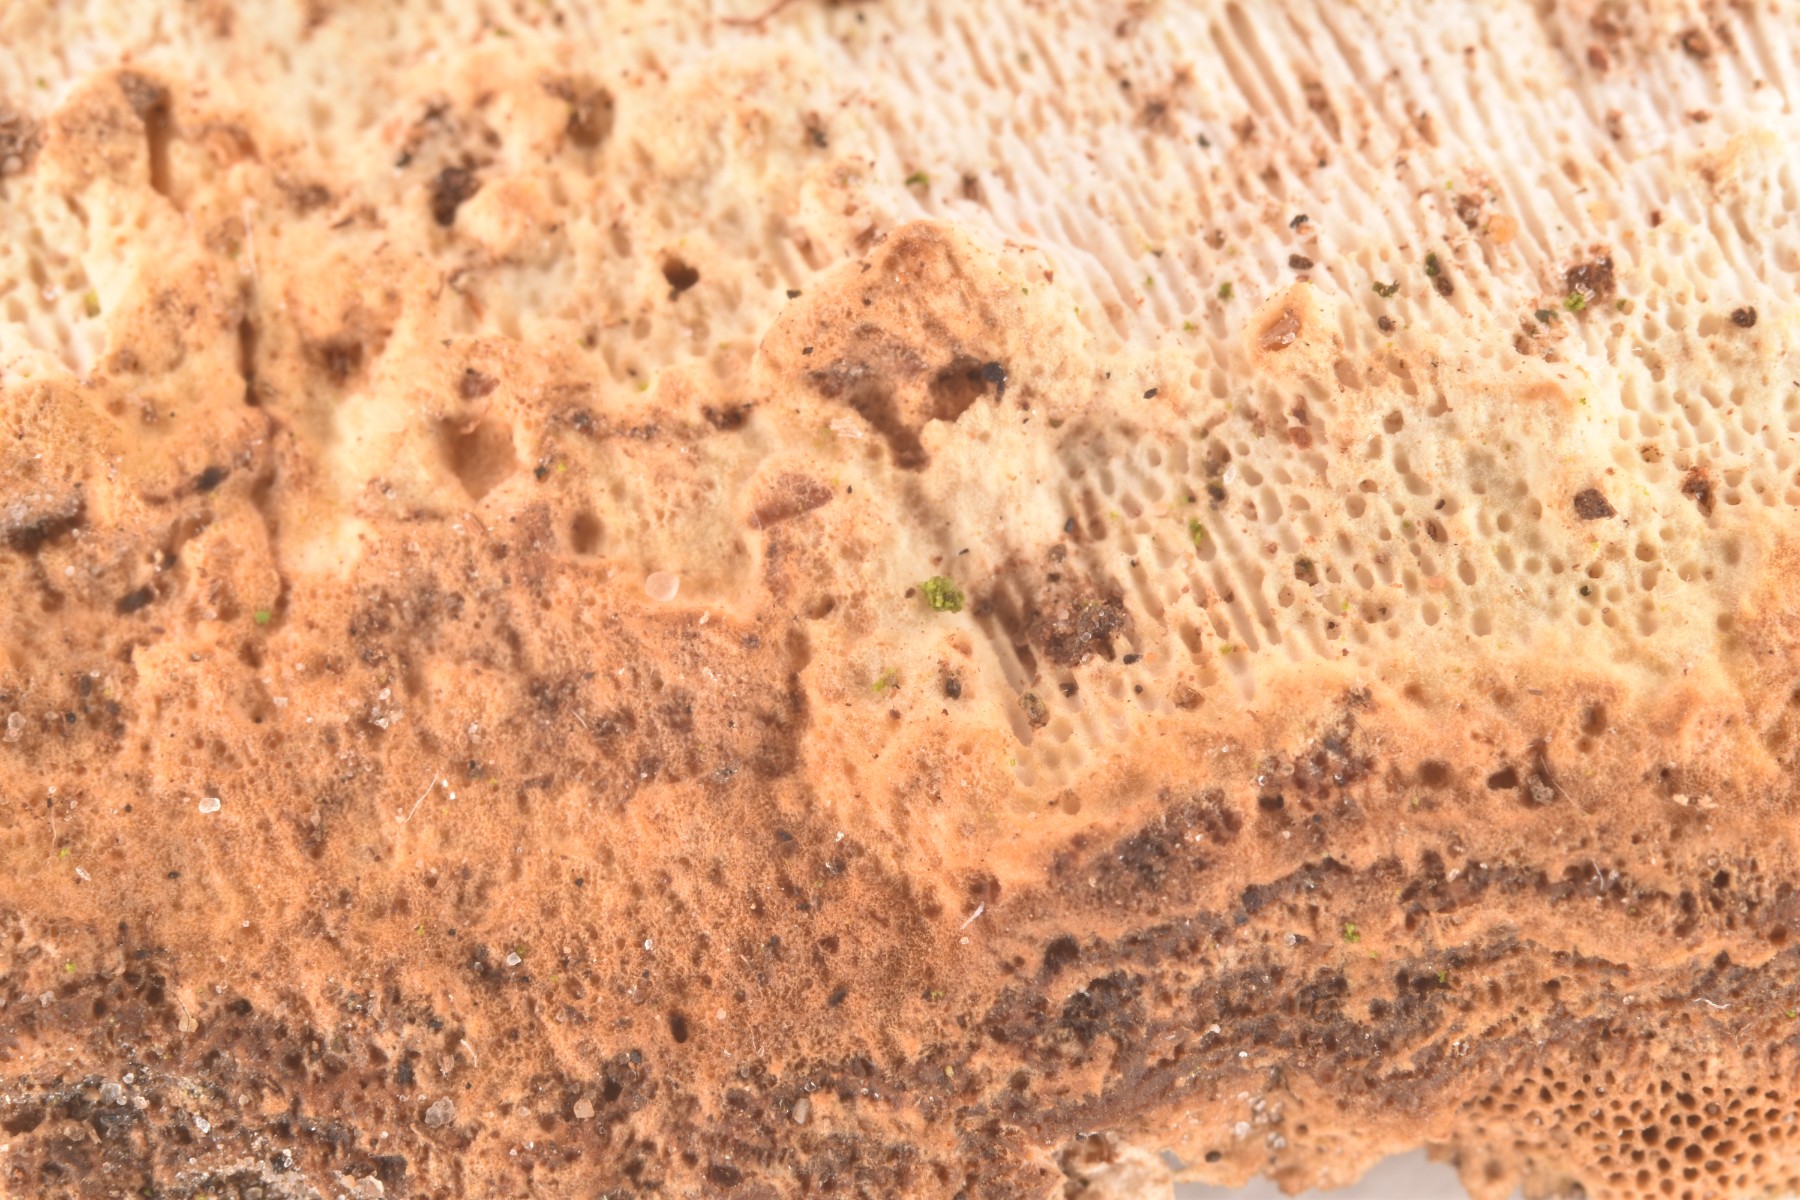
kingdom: Fungi
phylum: Basidiomycota
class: Agaricomycetes
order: Polyporales
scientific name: Polyporales
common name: poresvampordenen
